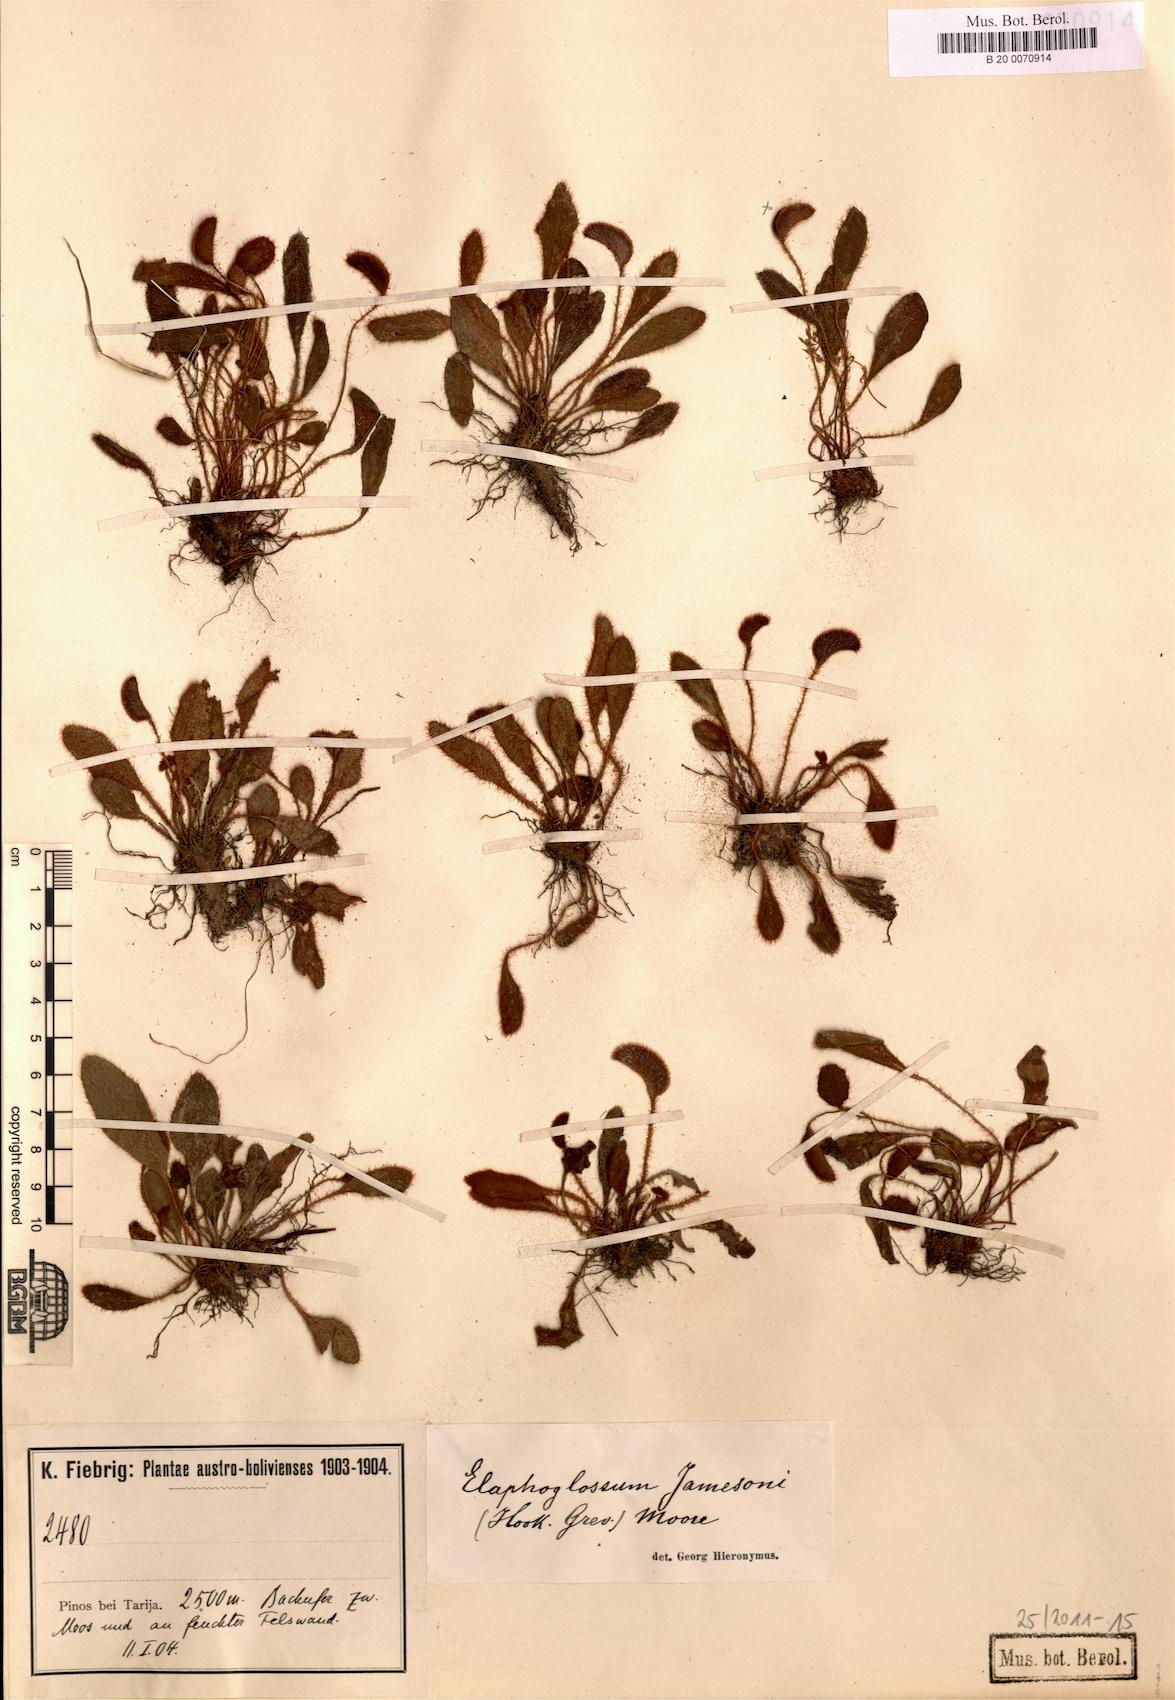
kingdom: Plantae
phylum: Tracheophyta
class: Polypodiopsida
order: Polypodiales
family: Dryopteridaceae
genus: Elaphoglossum
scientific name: Elaphoglossum piloselloides
